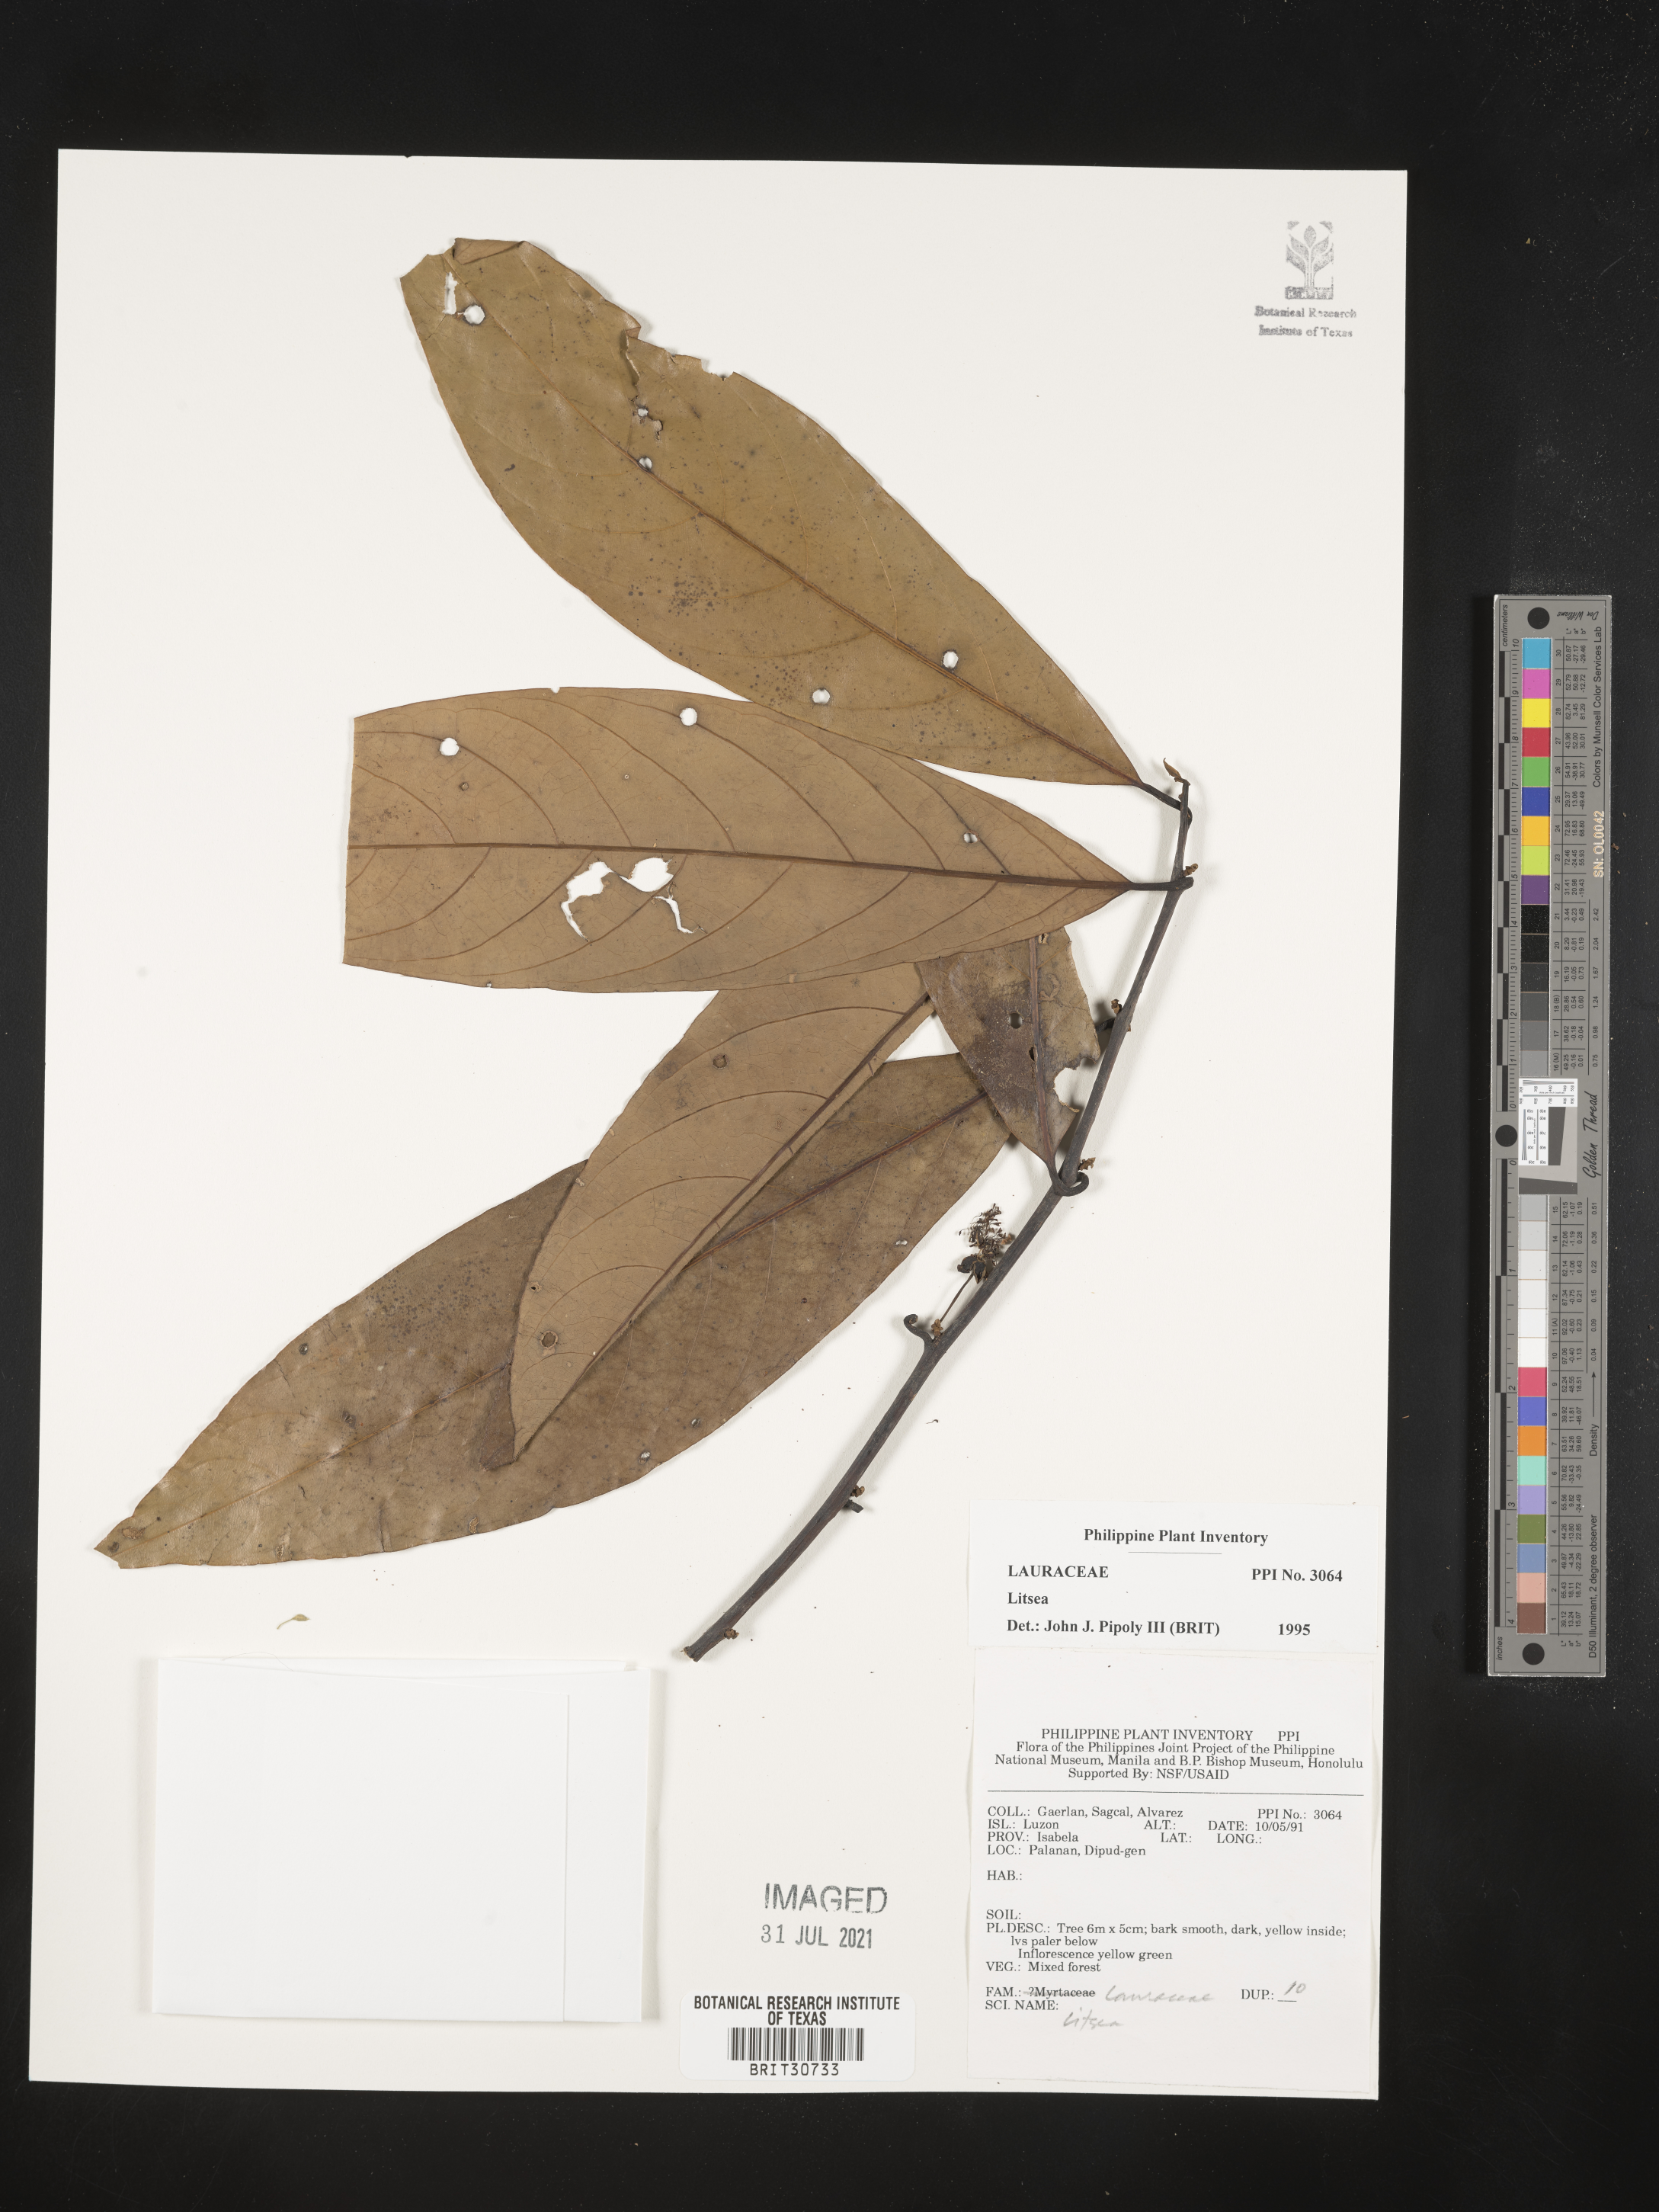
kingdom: Plantae
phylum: Tracheophyta
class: Magnoliopsida
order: Laurales
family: Lauraceae
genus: Litsea
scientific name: Litsea
